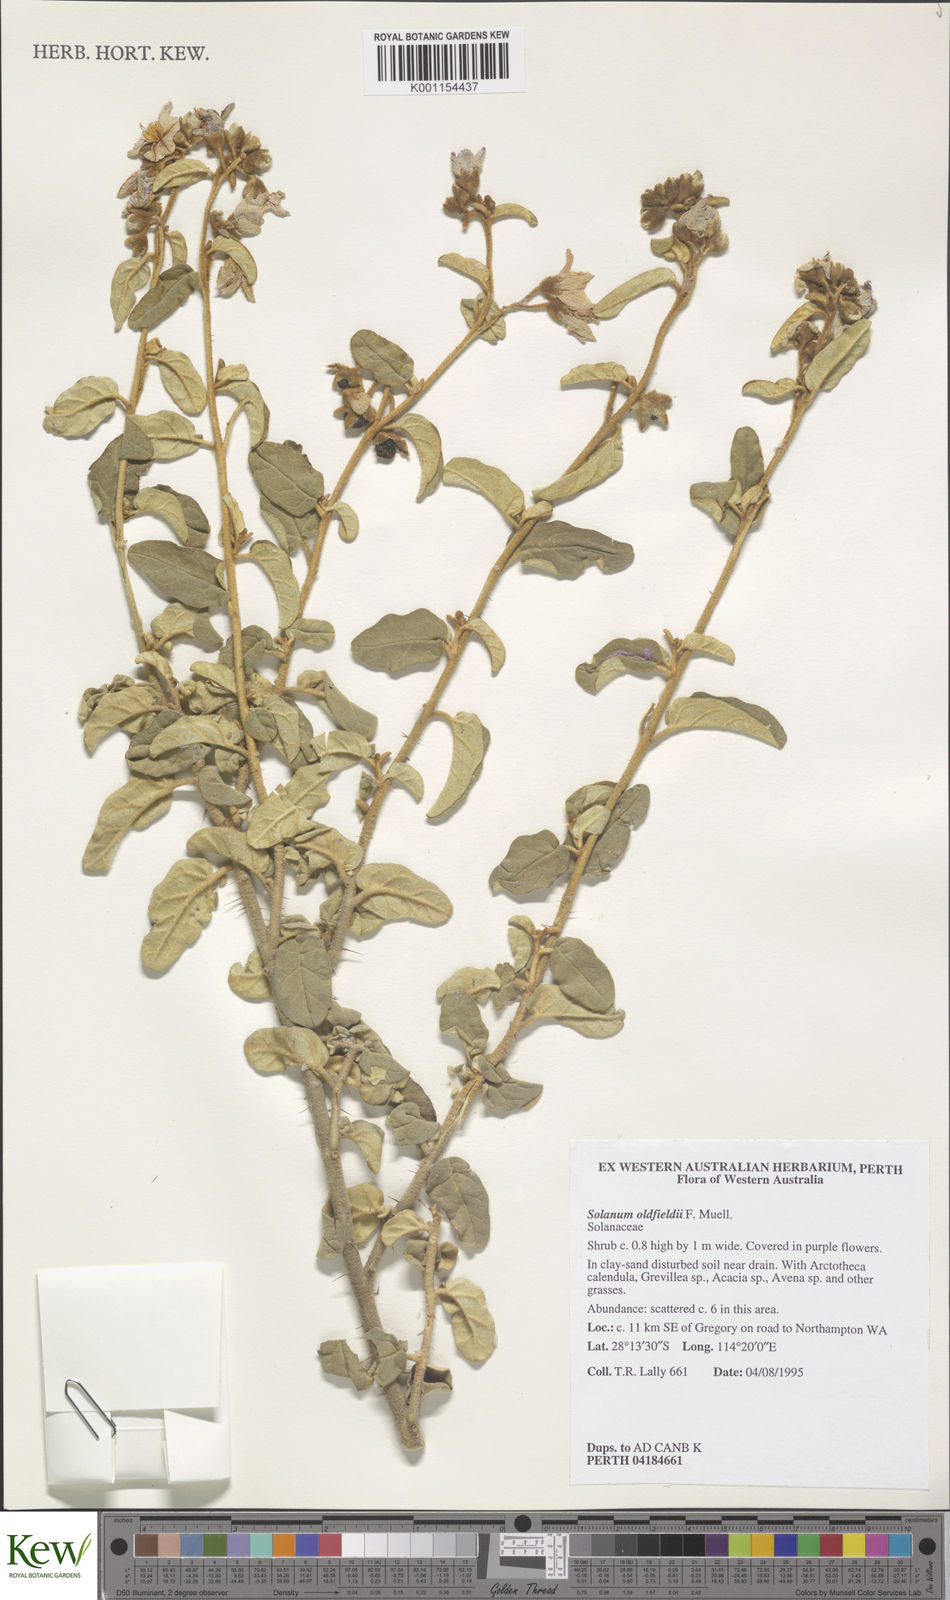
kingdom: Plantae
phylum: Tracheophyta
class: Magnoliopsida
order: Solanales
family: Solanaceae
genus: Solanum
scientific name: Solanum oldfieldii
